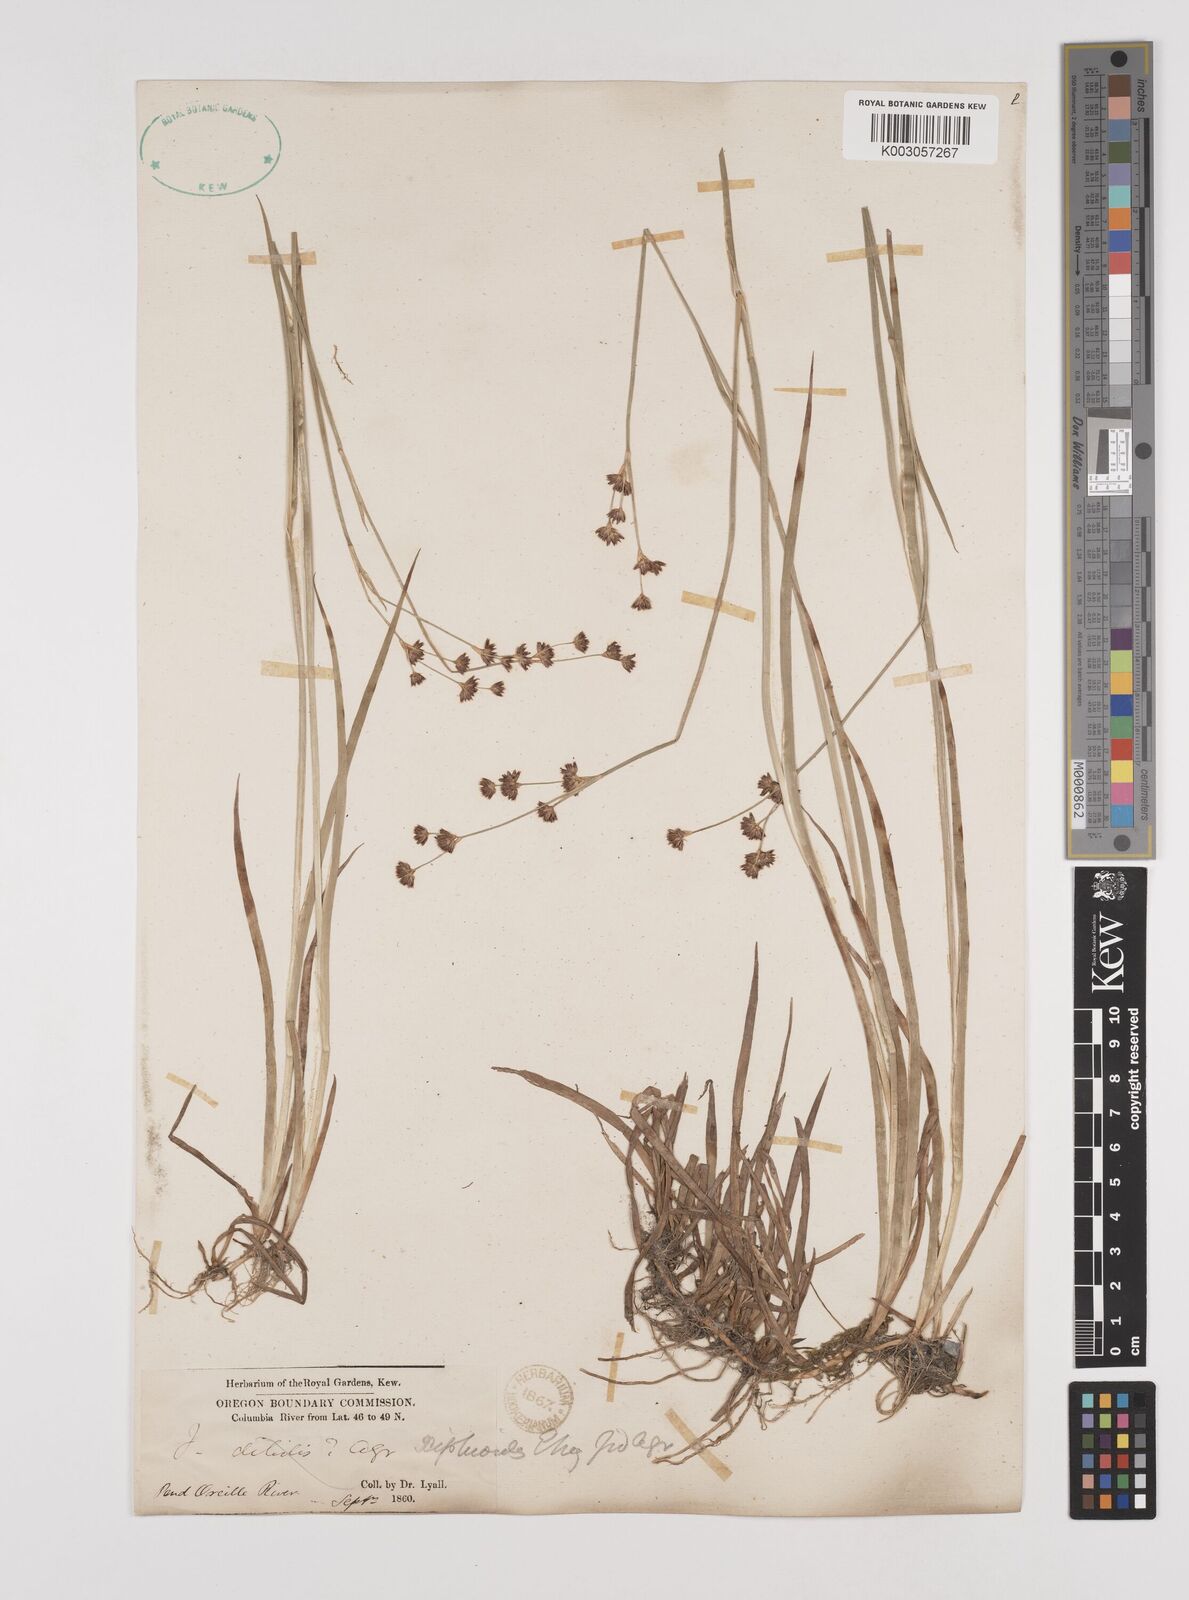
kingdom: Plantae
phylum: Tracheophyta
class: Liliopsida
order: Poales
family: Juncaceae
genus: Juncus
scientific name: Juncus xiphioides
